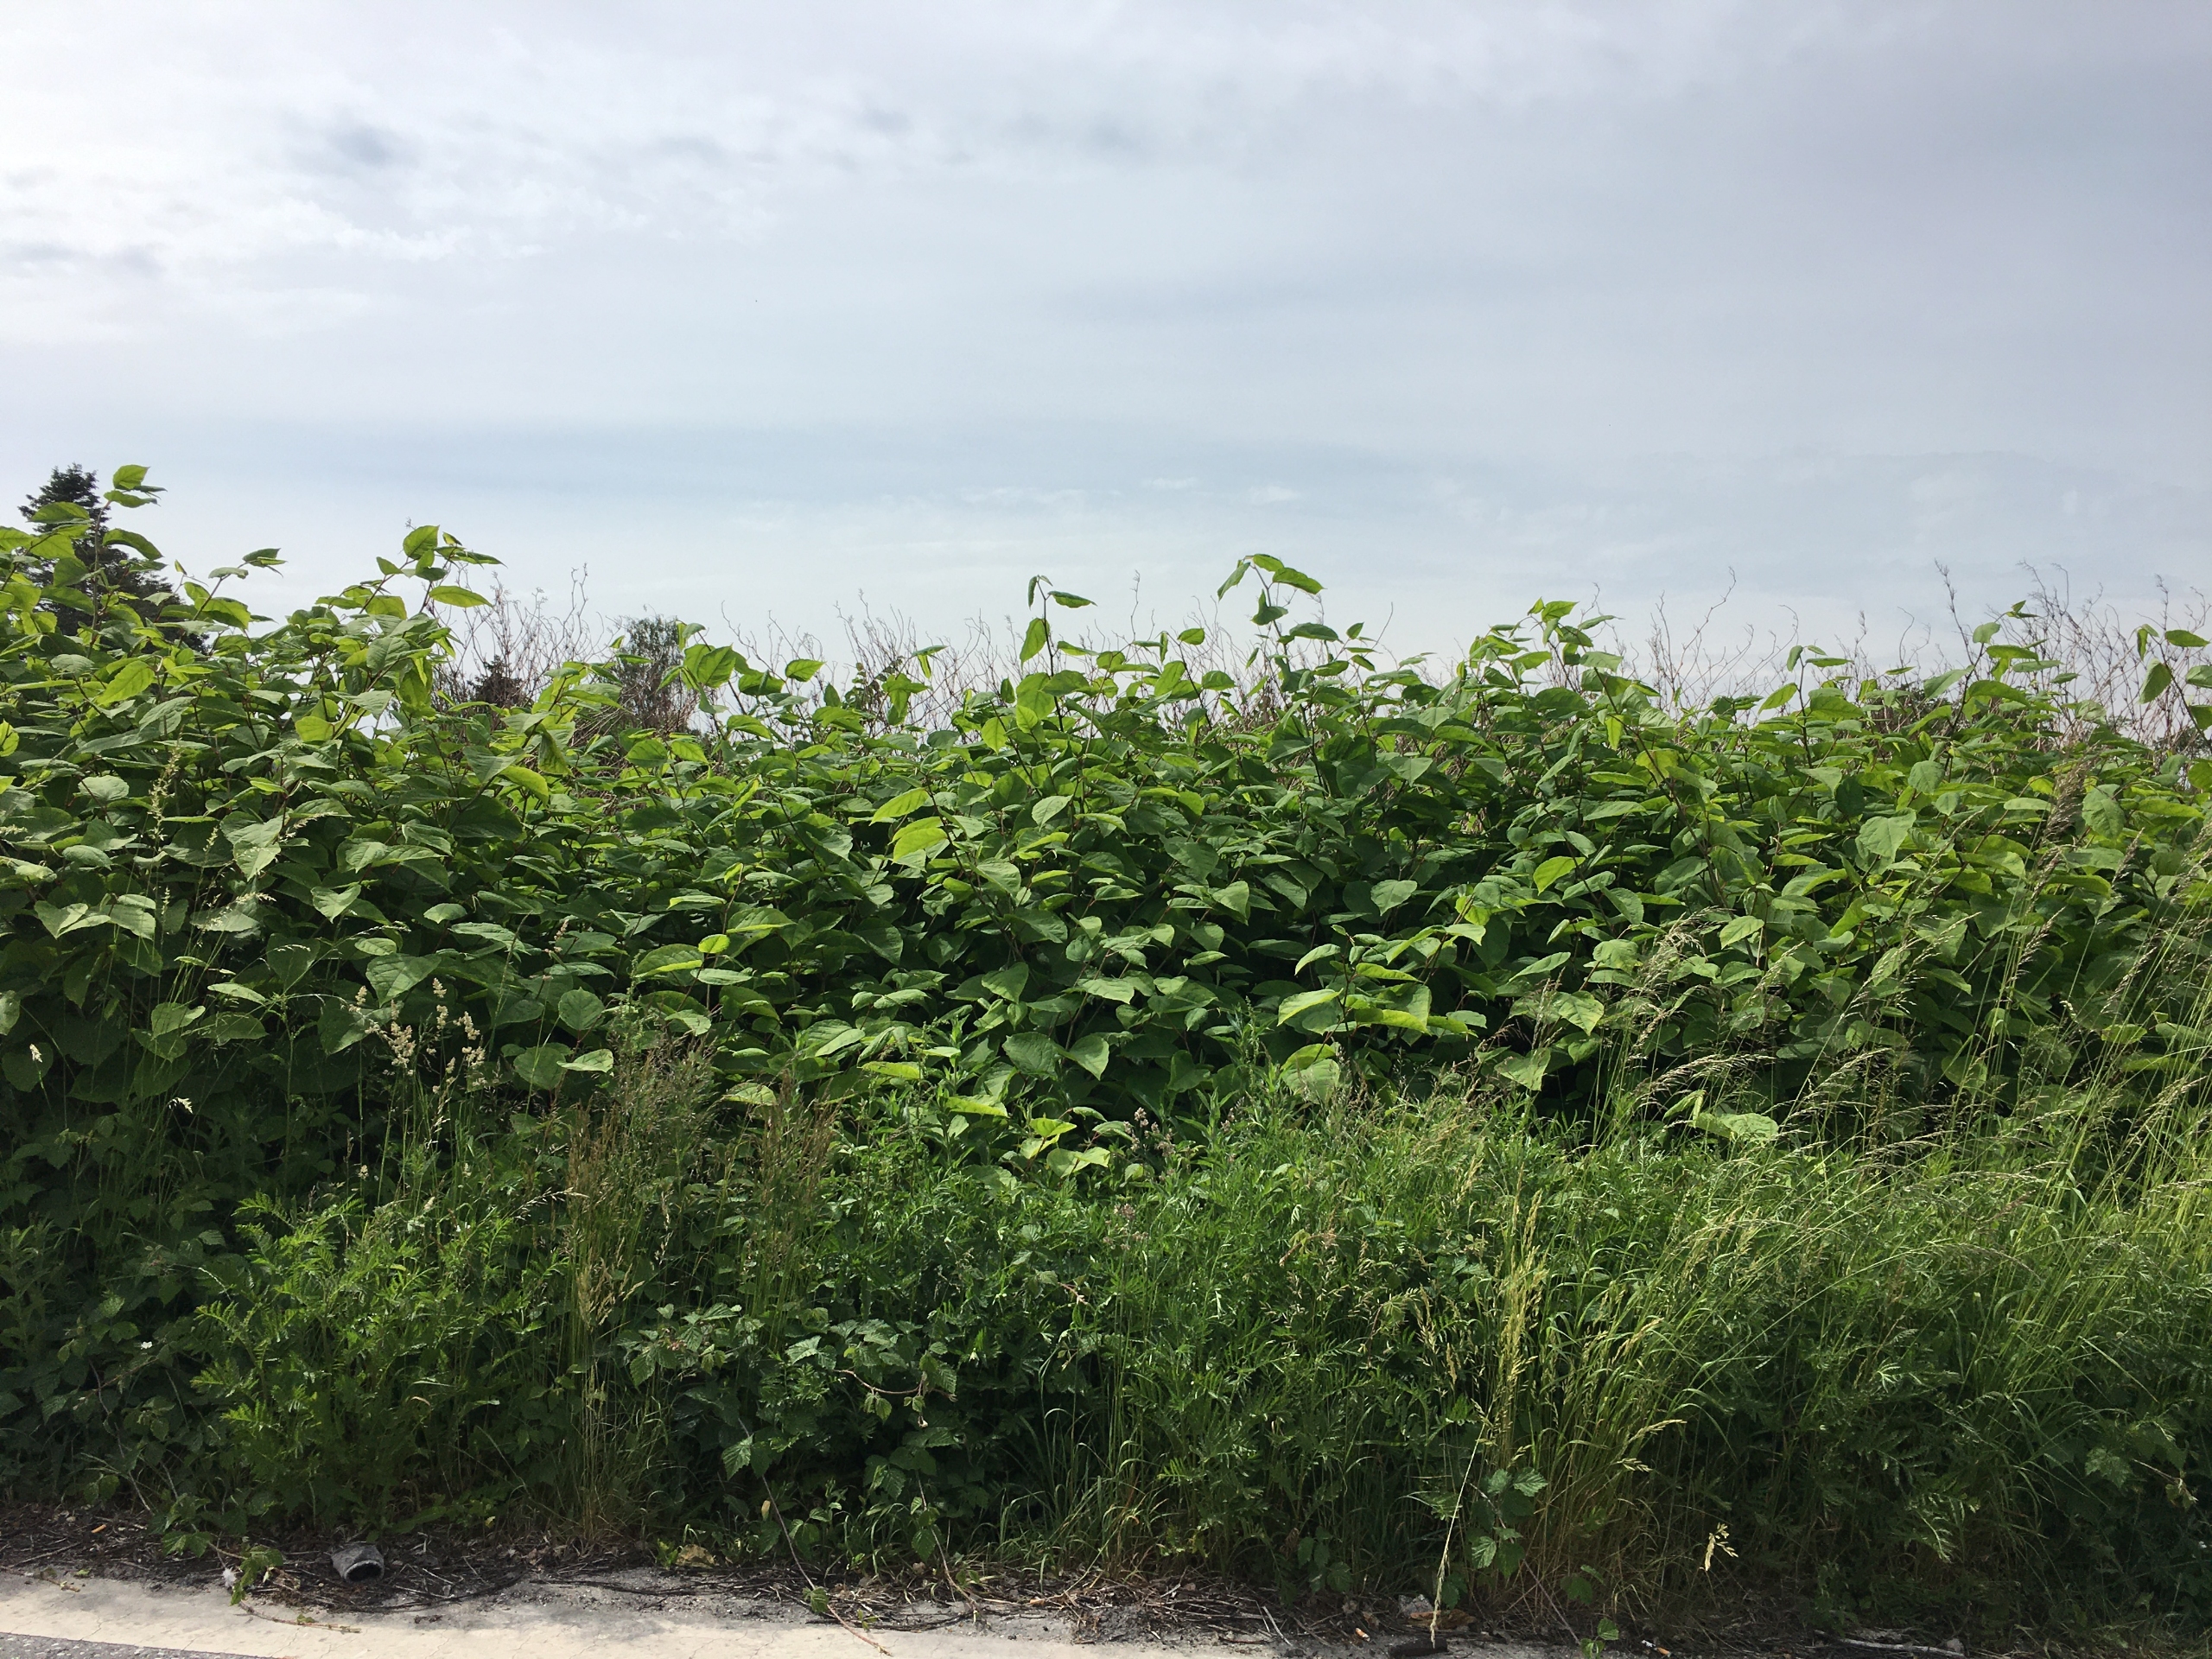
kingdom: Plantae
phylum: Tracheophyta
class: Magnoliopsida
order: Caryophyllales
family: Polygonaceae
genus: Reynoutria
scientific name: Reynoutria japonica
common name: Japan-pileurt
